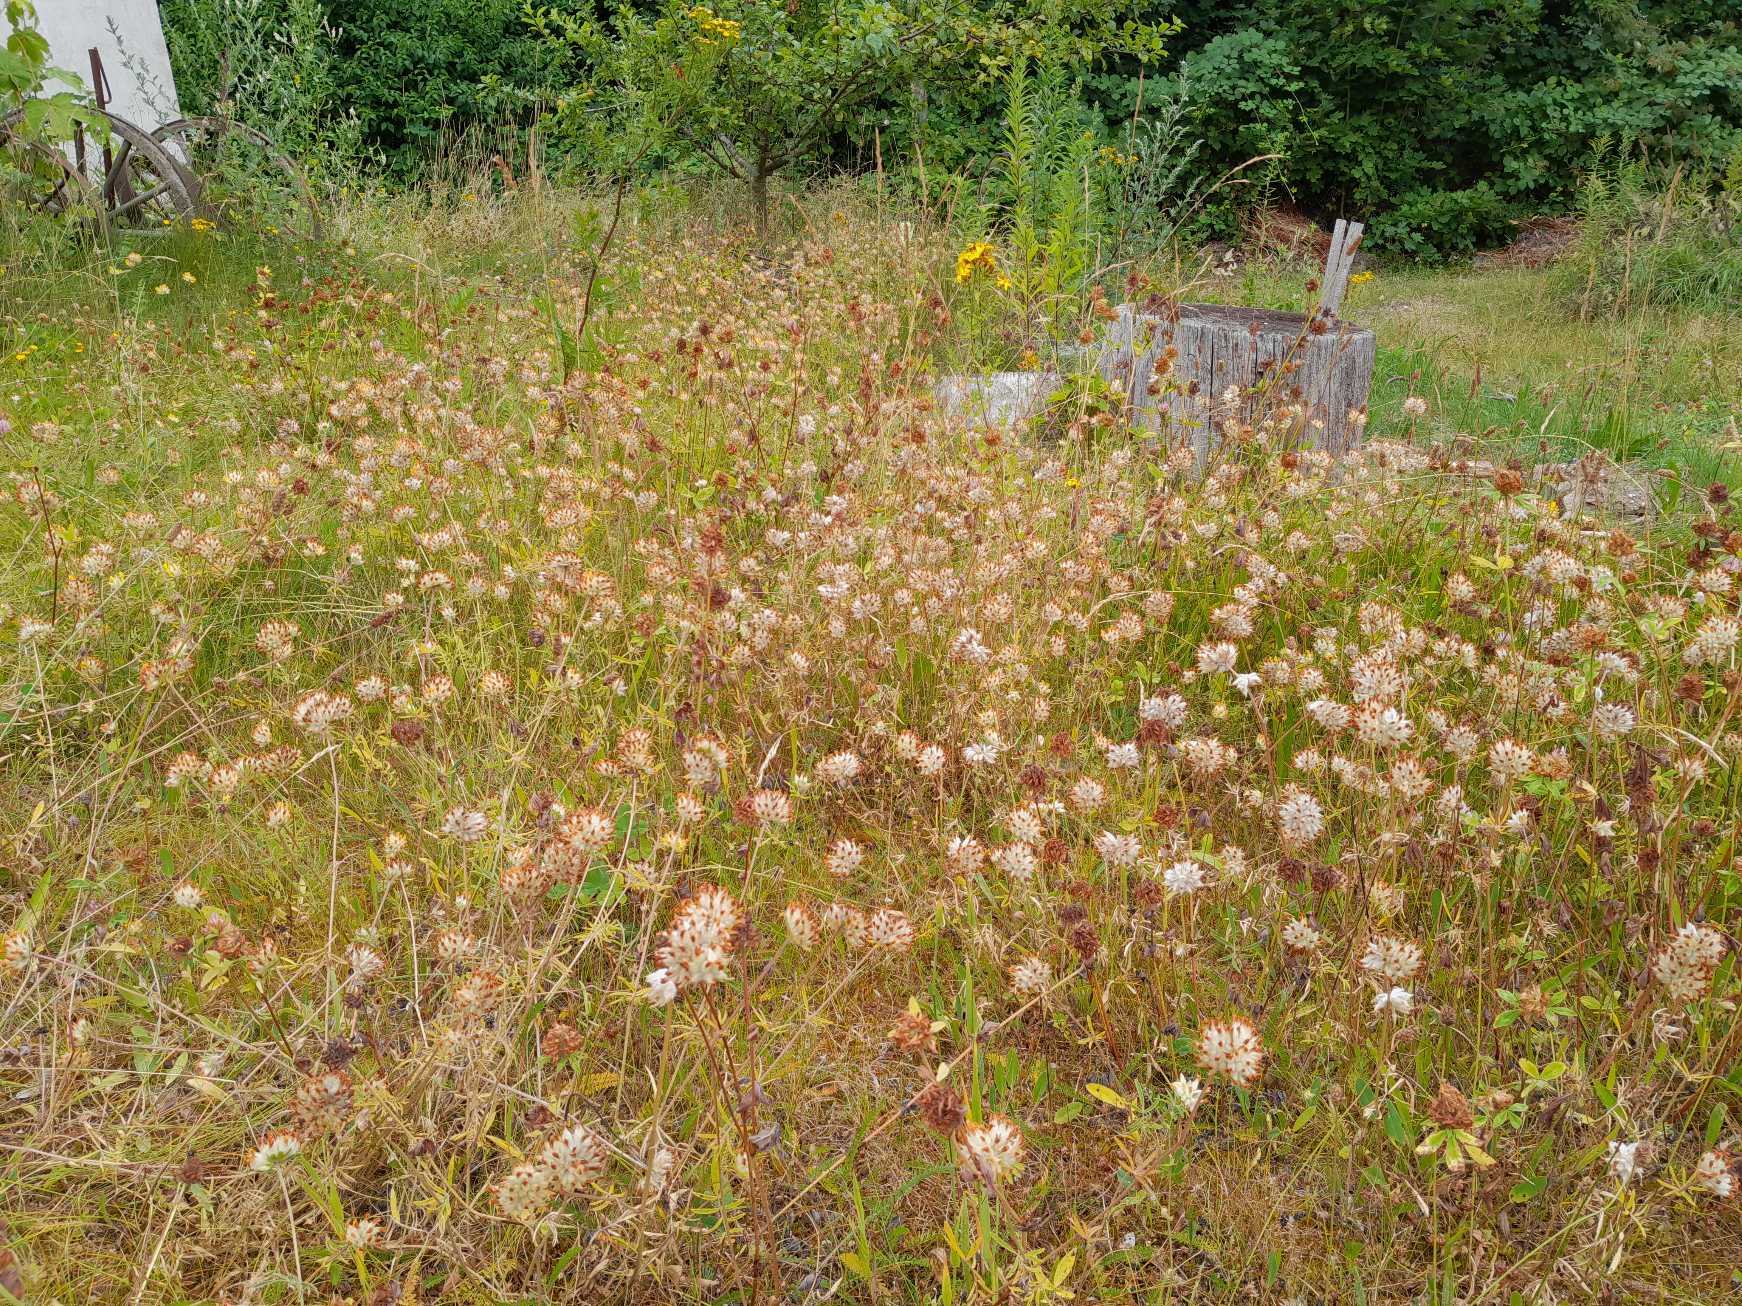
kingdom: Plantae
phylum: Tracheophyta
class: Magnoliopsida
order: Fabales
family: Fabaceae
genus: Anthyllis
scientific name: Anthyllis vulneraria
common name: Rundbælg
